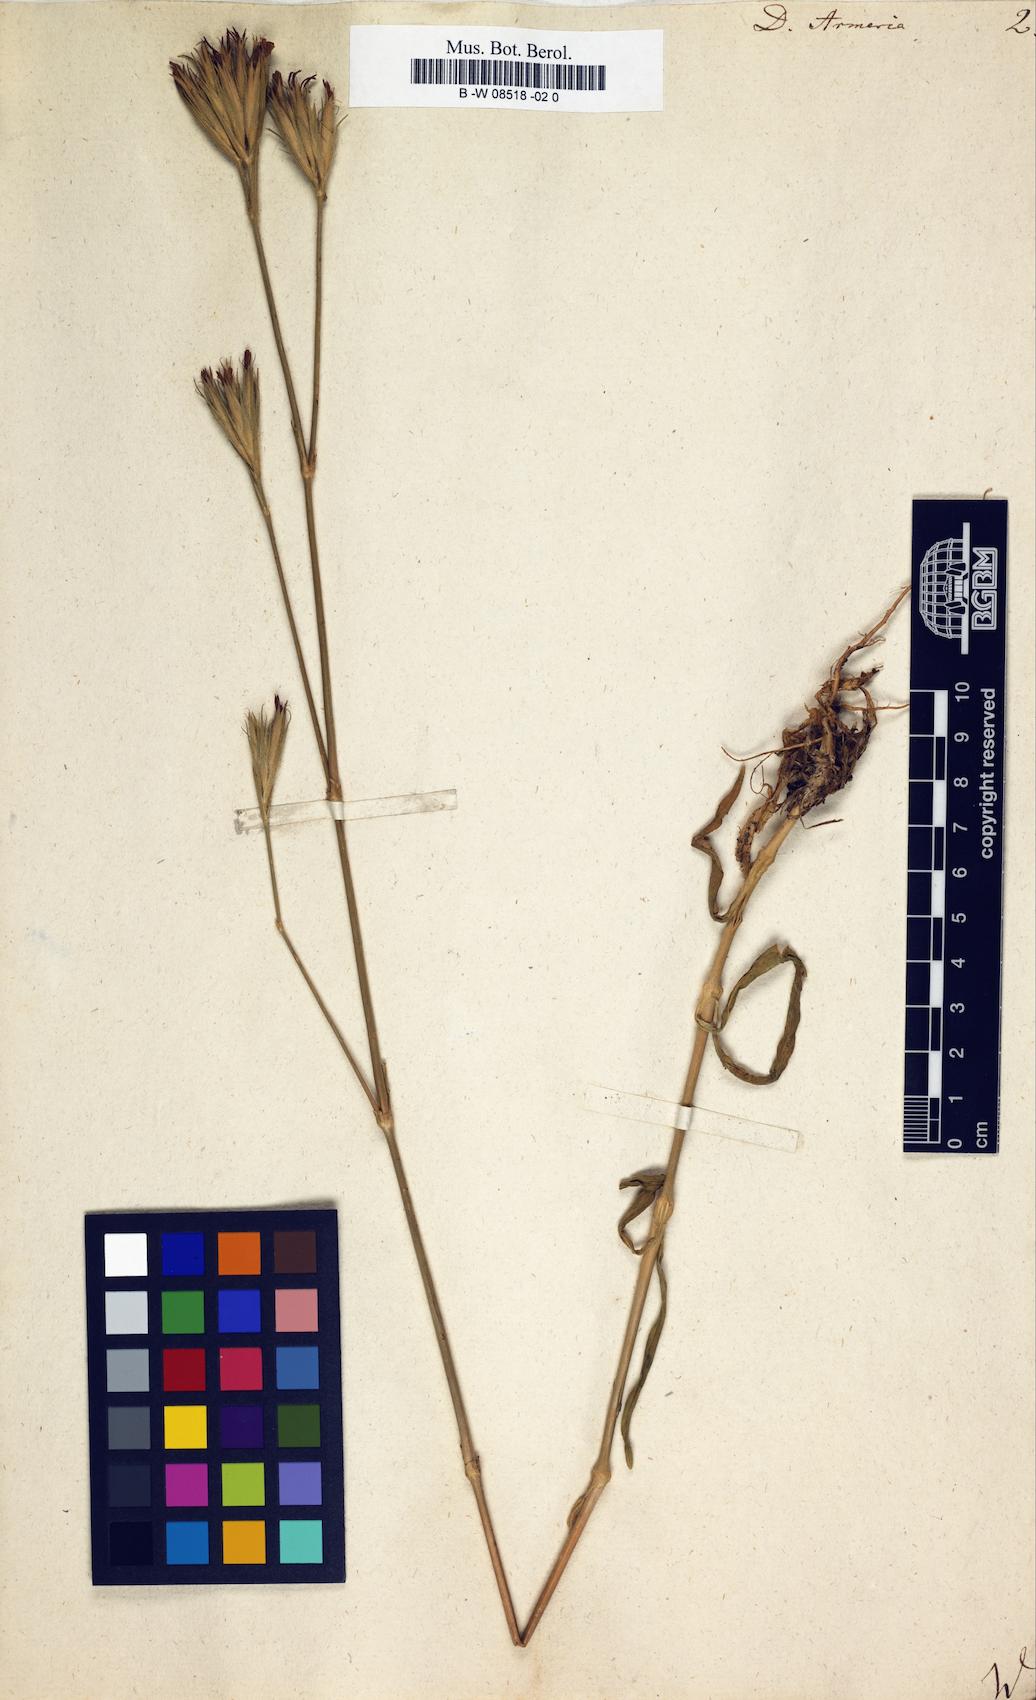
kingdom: Plantae
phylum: Tracheophyta
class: Magnoliopsida
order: Caryophyllales
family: Caryophyllaceae
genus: Dianthus
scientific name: Dianthus armeria
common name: Deptford pink
